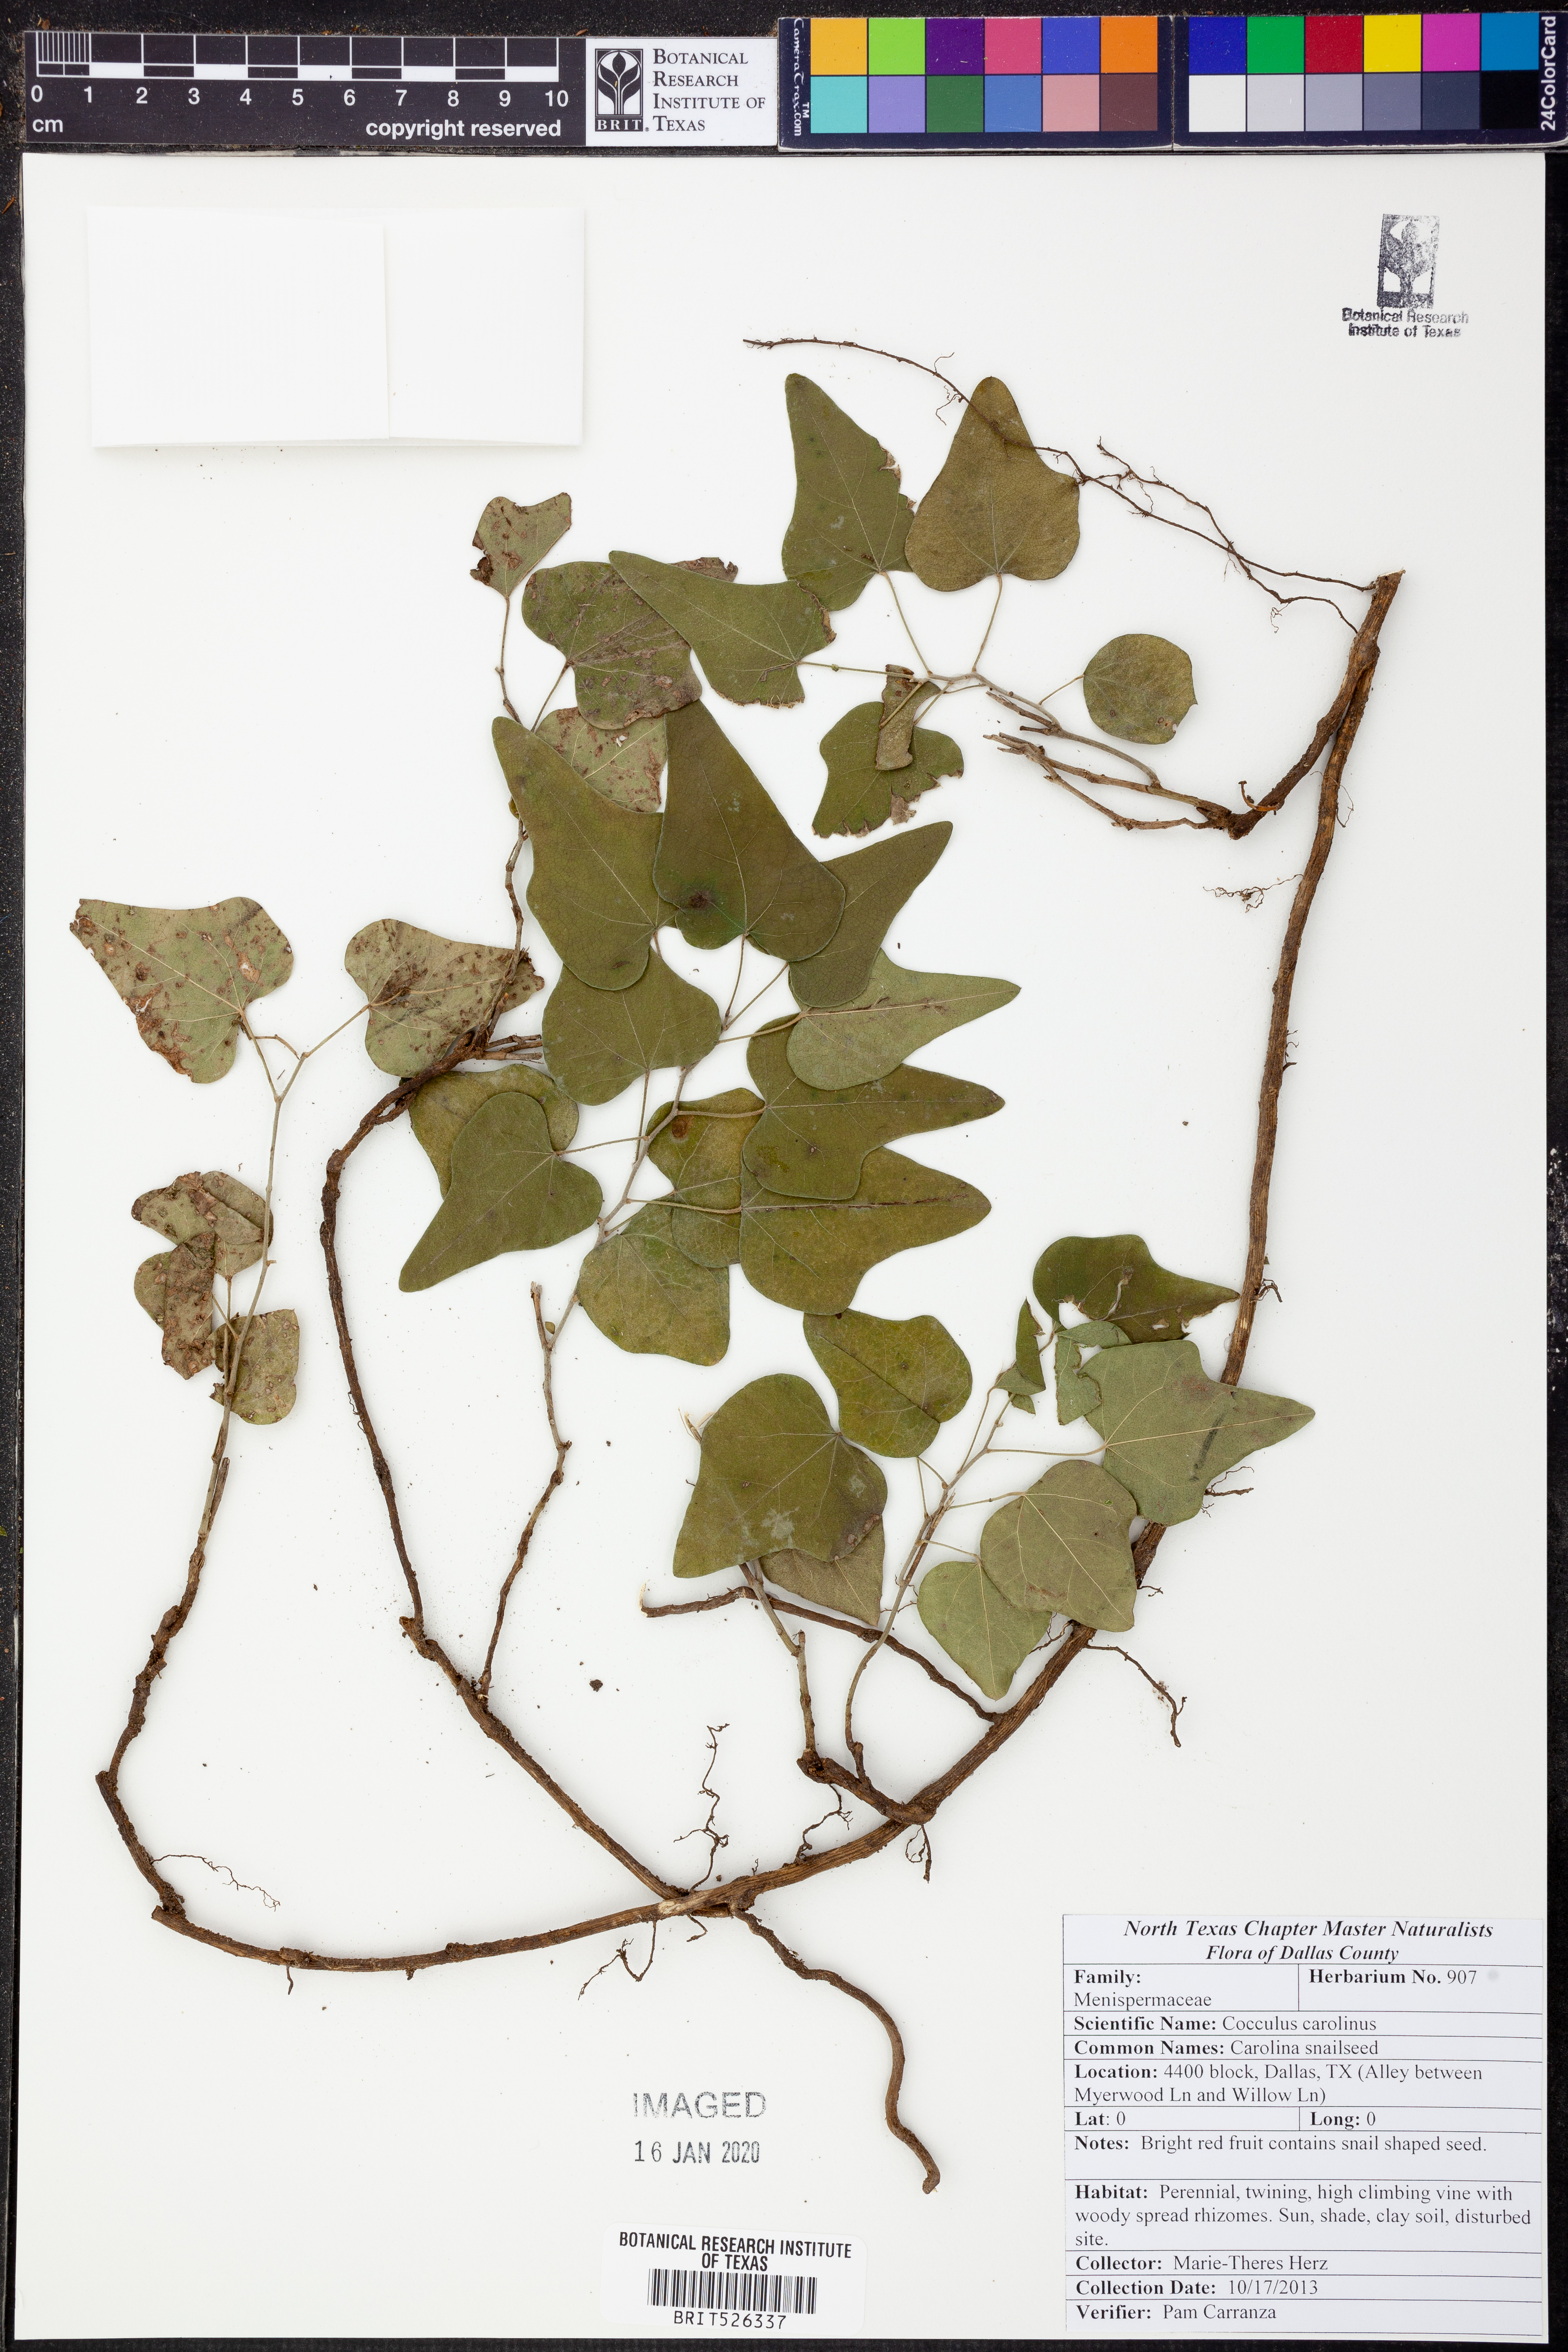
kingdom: Plantae
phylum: Tracheophyta
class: Magnoliopsida
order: Ranunculales
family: Menispermaceae
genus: Cocculus
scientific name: Cocculus carolinus
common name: Carolina moonseed
